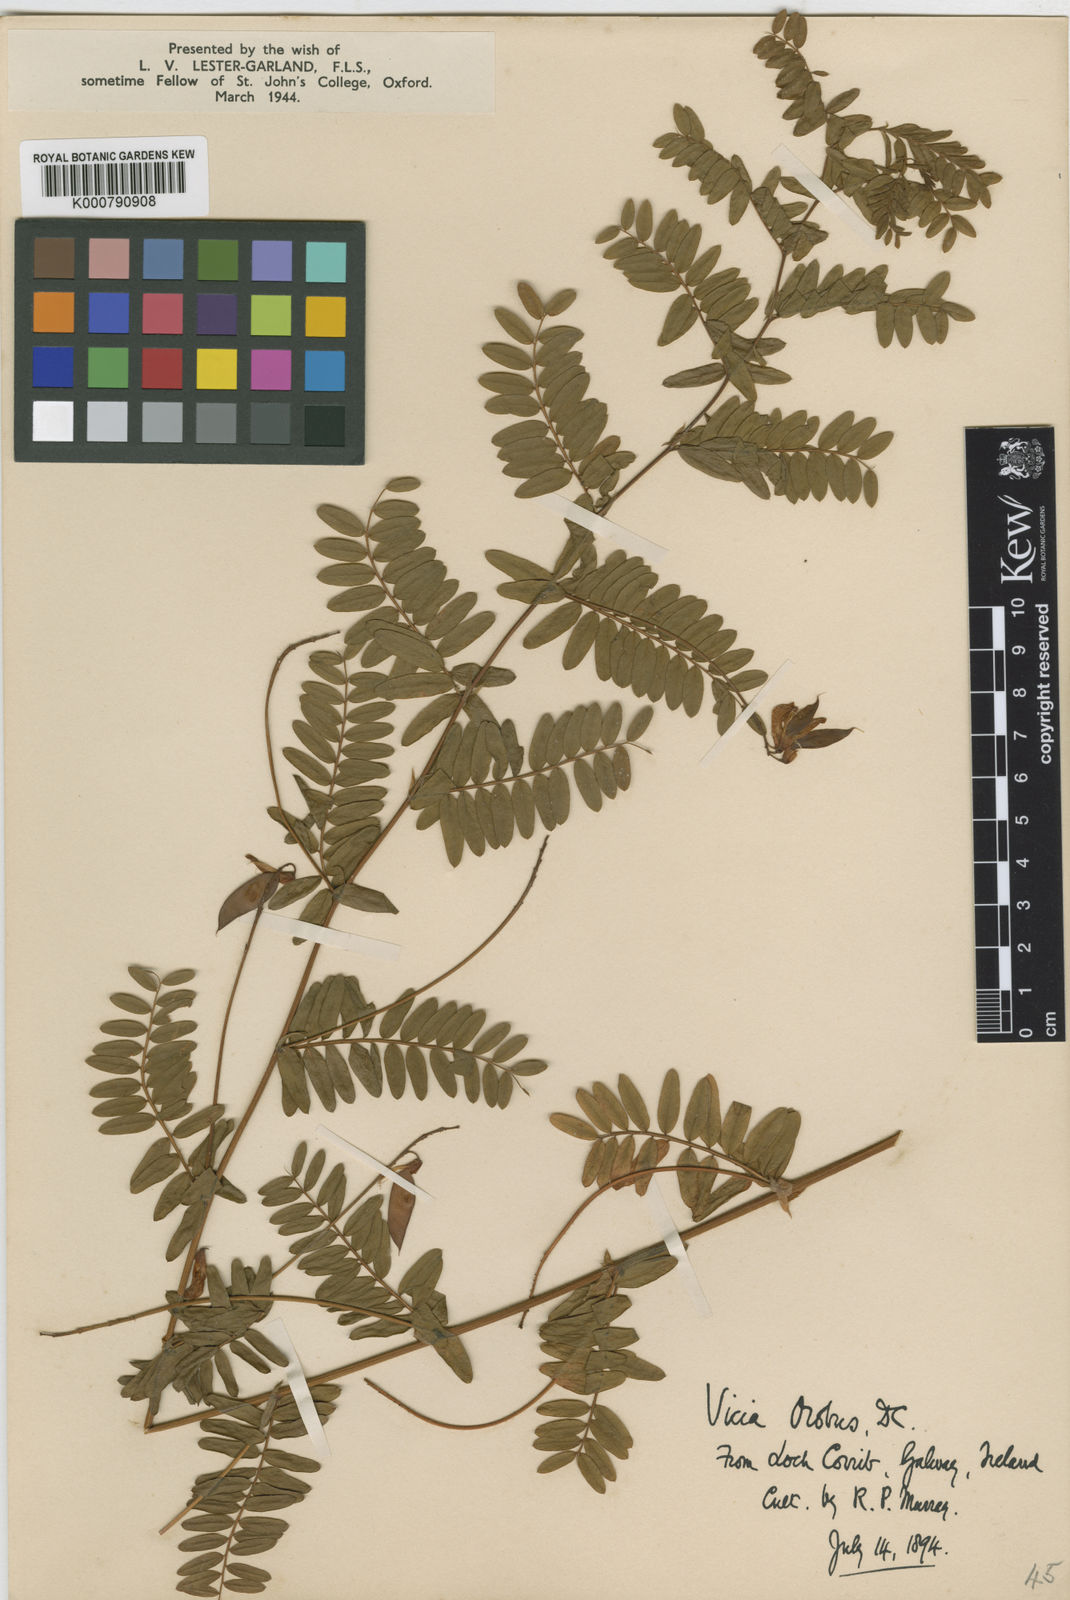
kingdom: Plantae
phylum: Tracheophyta
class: Magnoliopsida
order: Fabales
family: Fabaceae
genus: Vicia
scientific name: Vicia orobus
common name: Wood bitter-vetch
